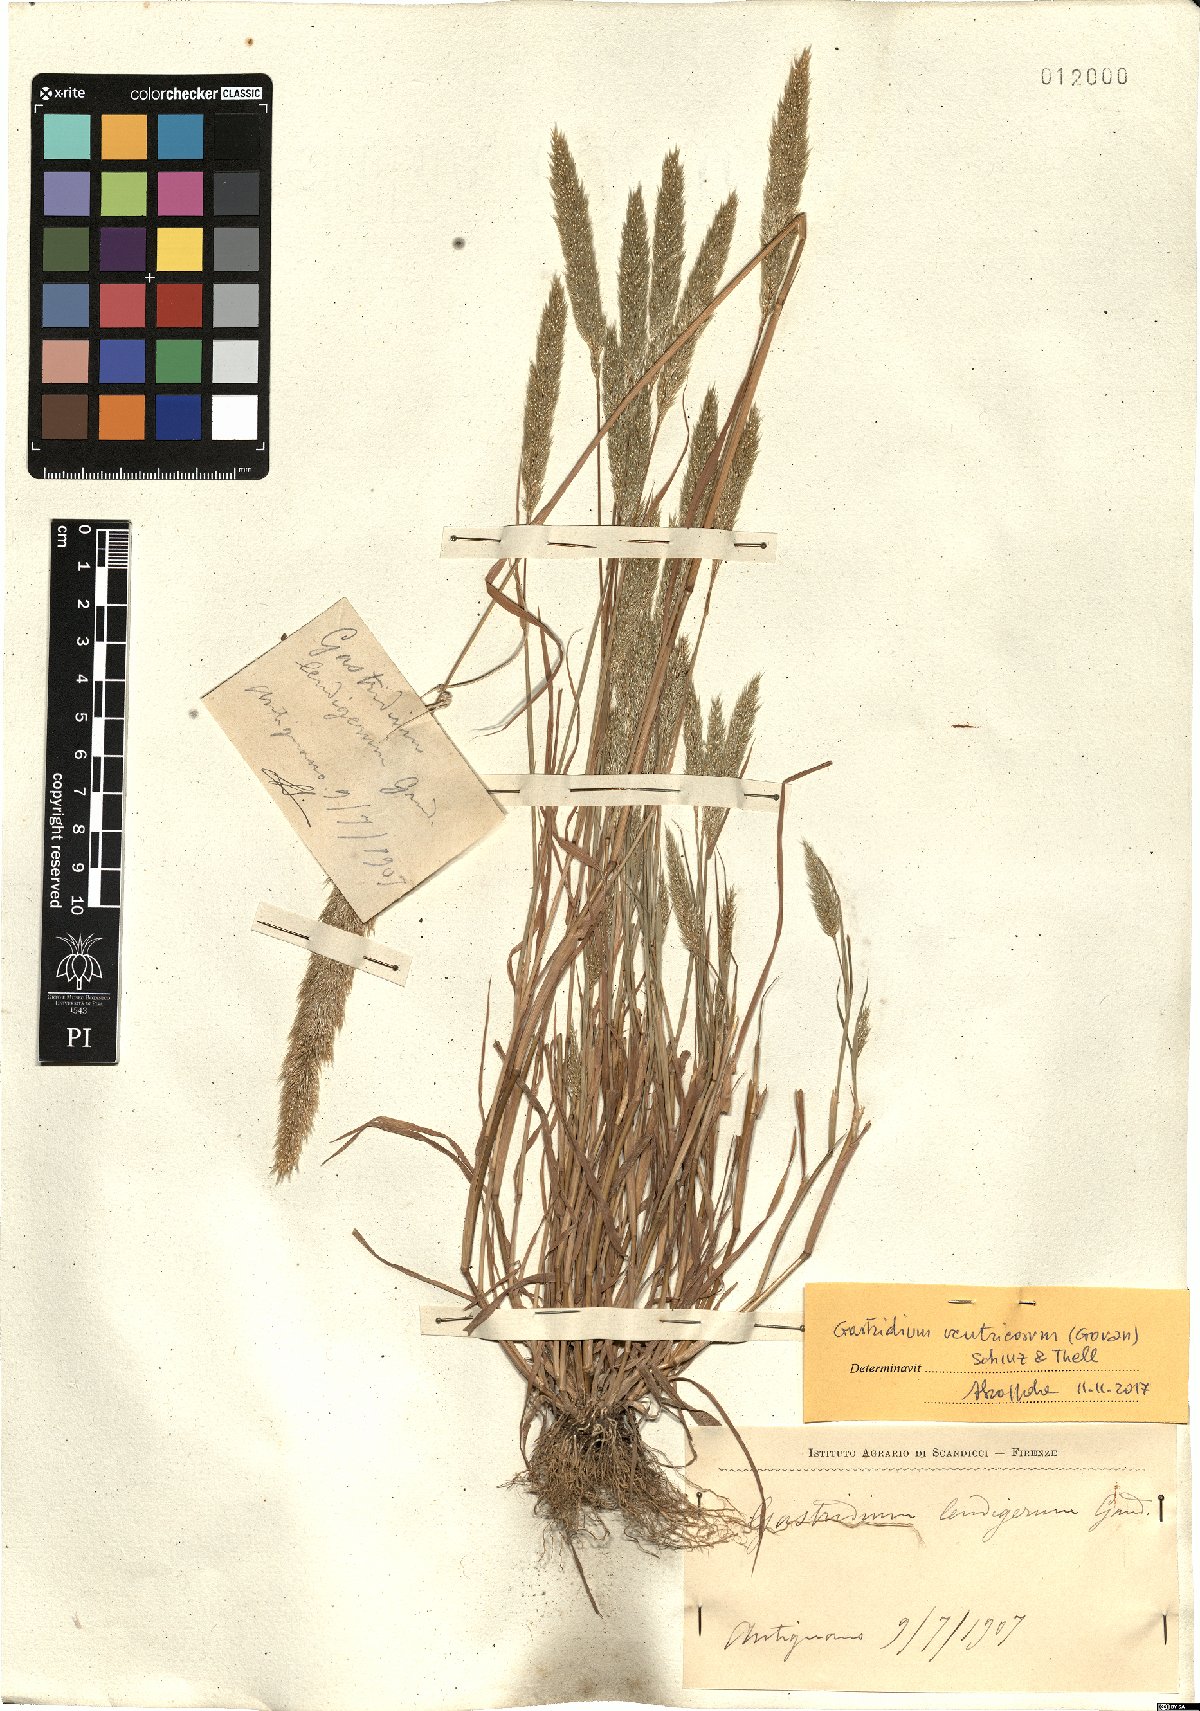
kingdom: Plantae
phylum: Tracheophyta
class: Liliopsida
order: Poales
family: Poaceae
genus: Gastridium
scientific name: Gastridium ventricosum
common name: Nit-grass
